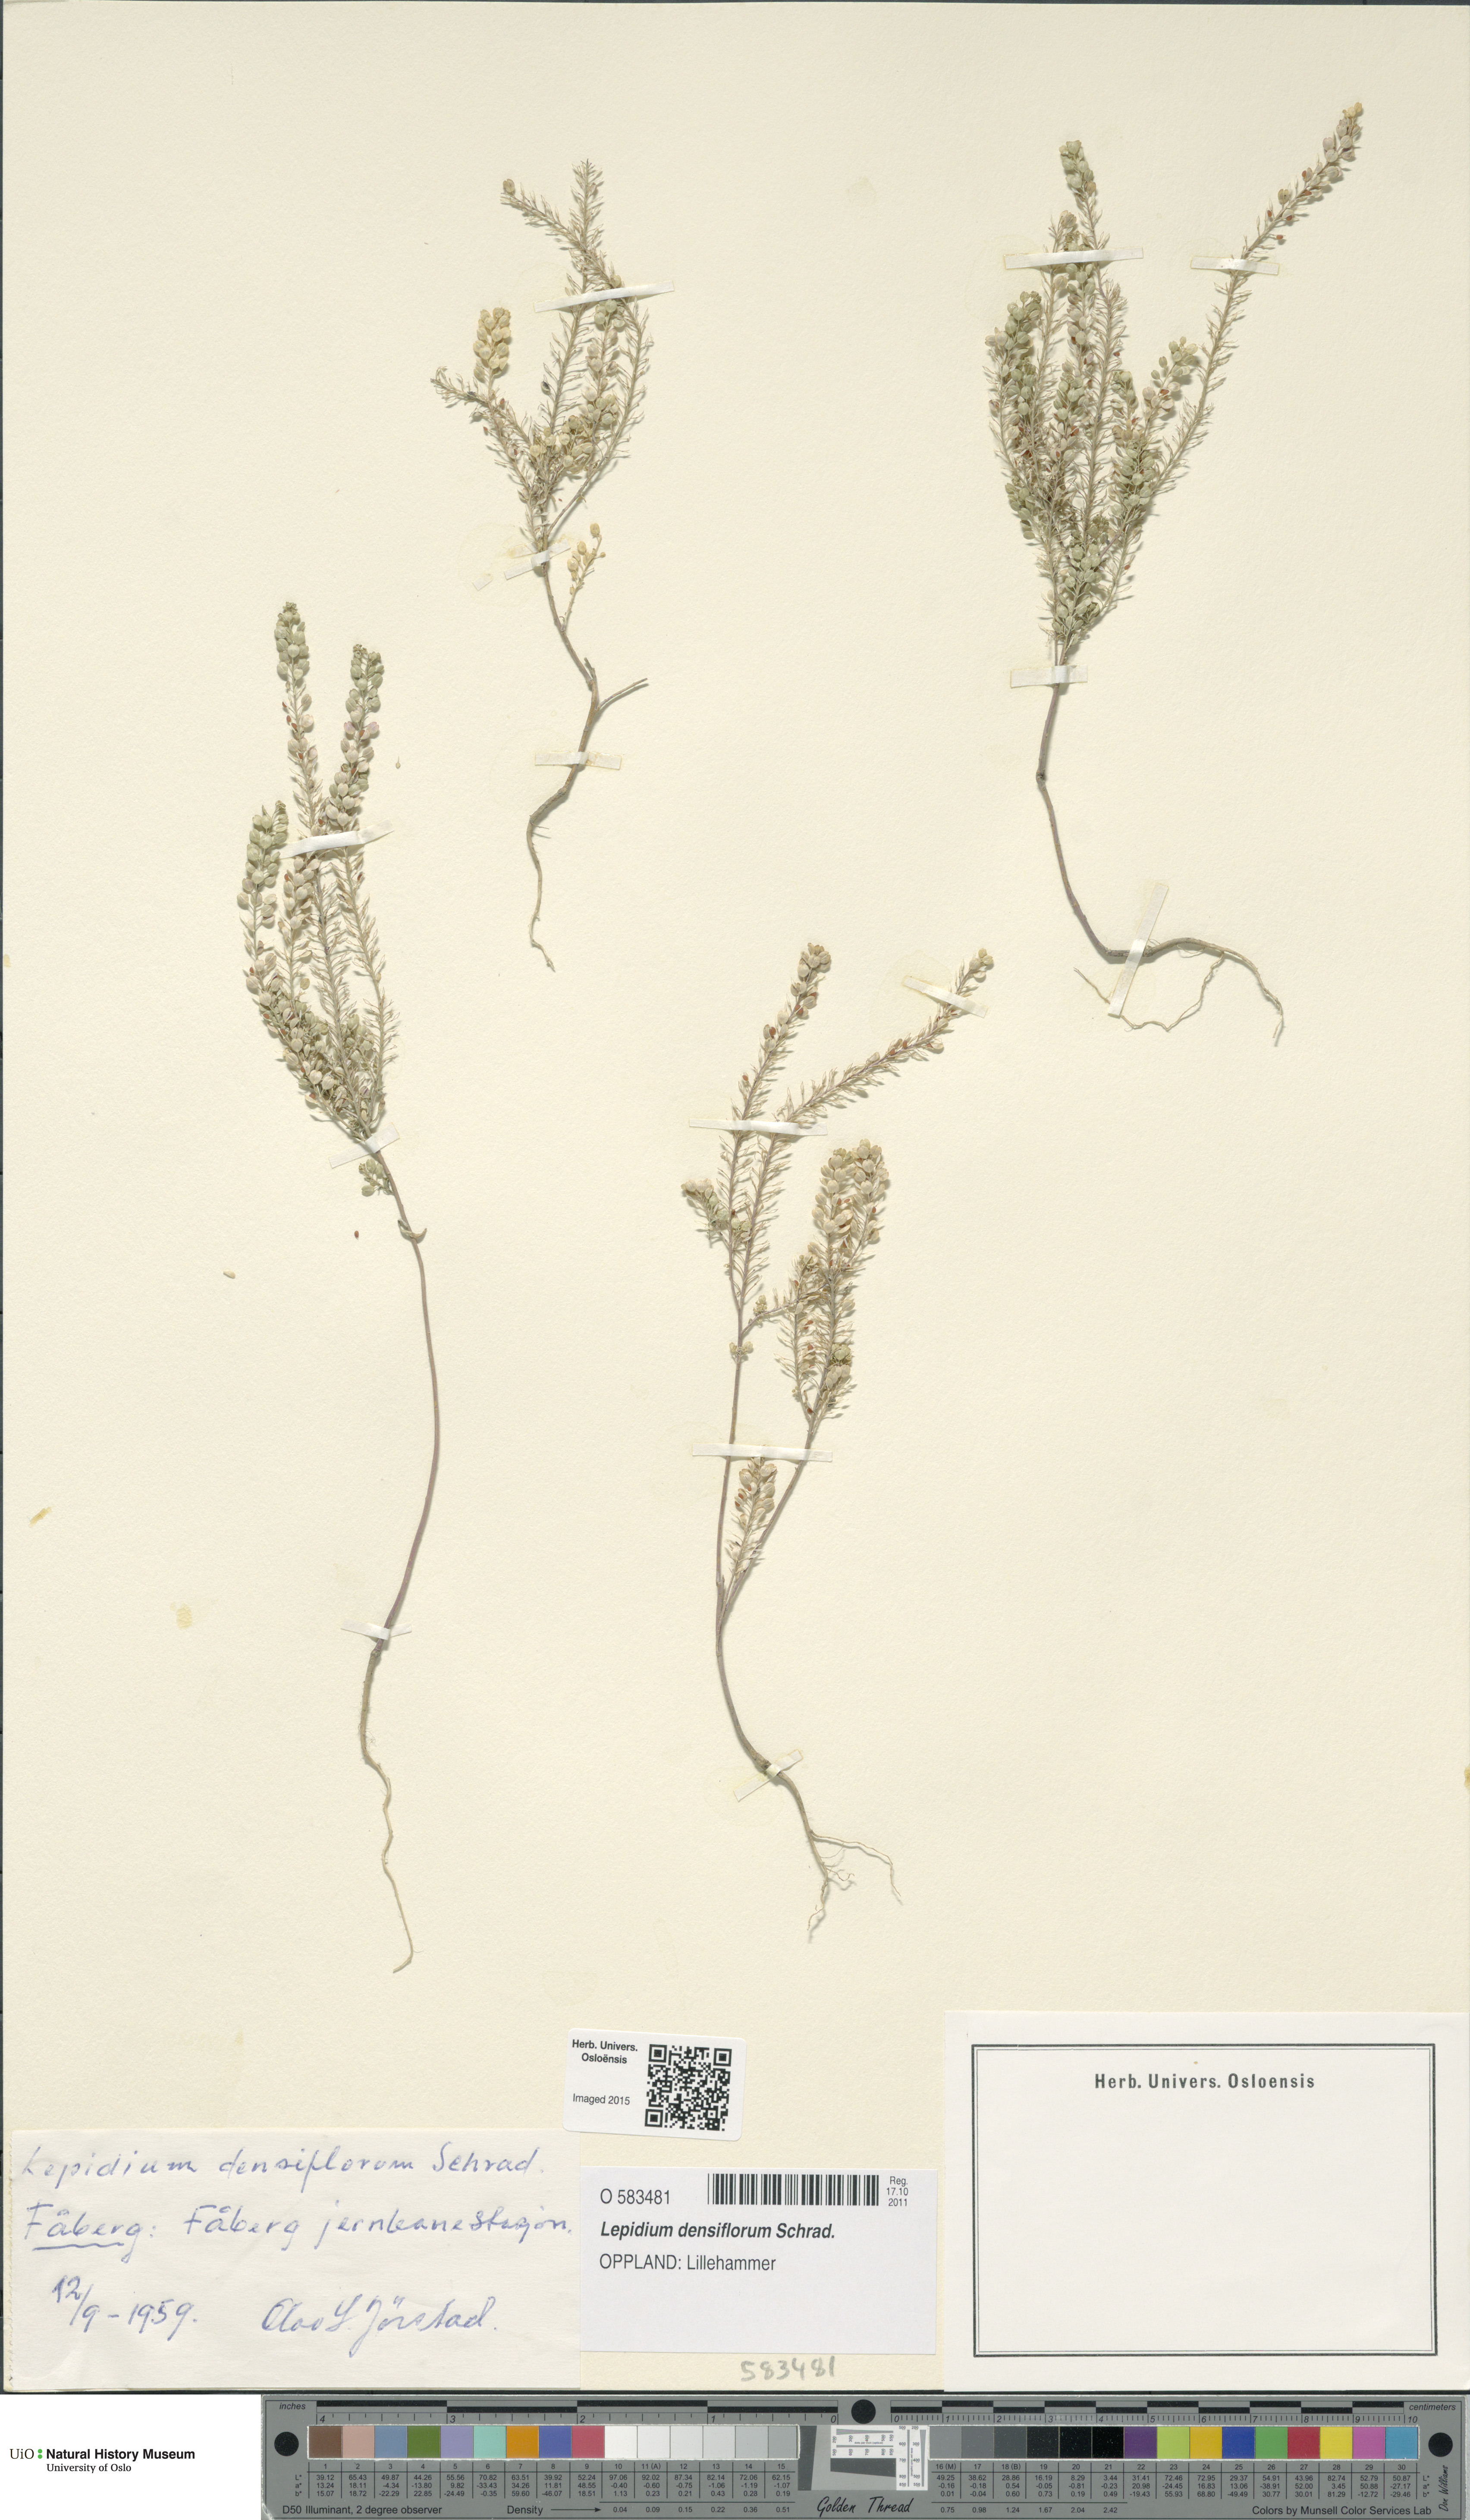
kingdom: Plantae
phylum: Tracheophyta
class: Magnoliopsida
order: Brassicales
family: Brassicaceae
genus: Lepidium
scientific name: Lepidium densiflorum
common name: Miner's pepperwort
